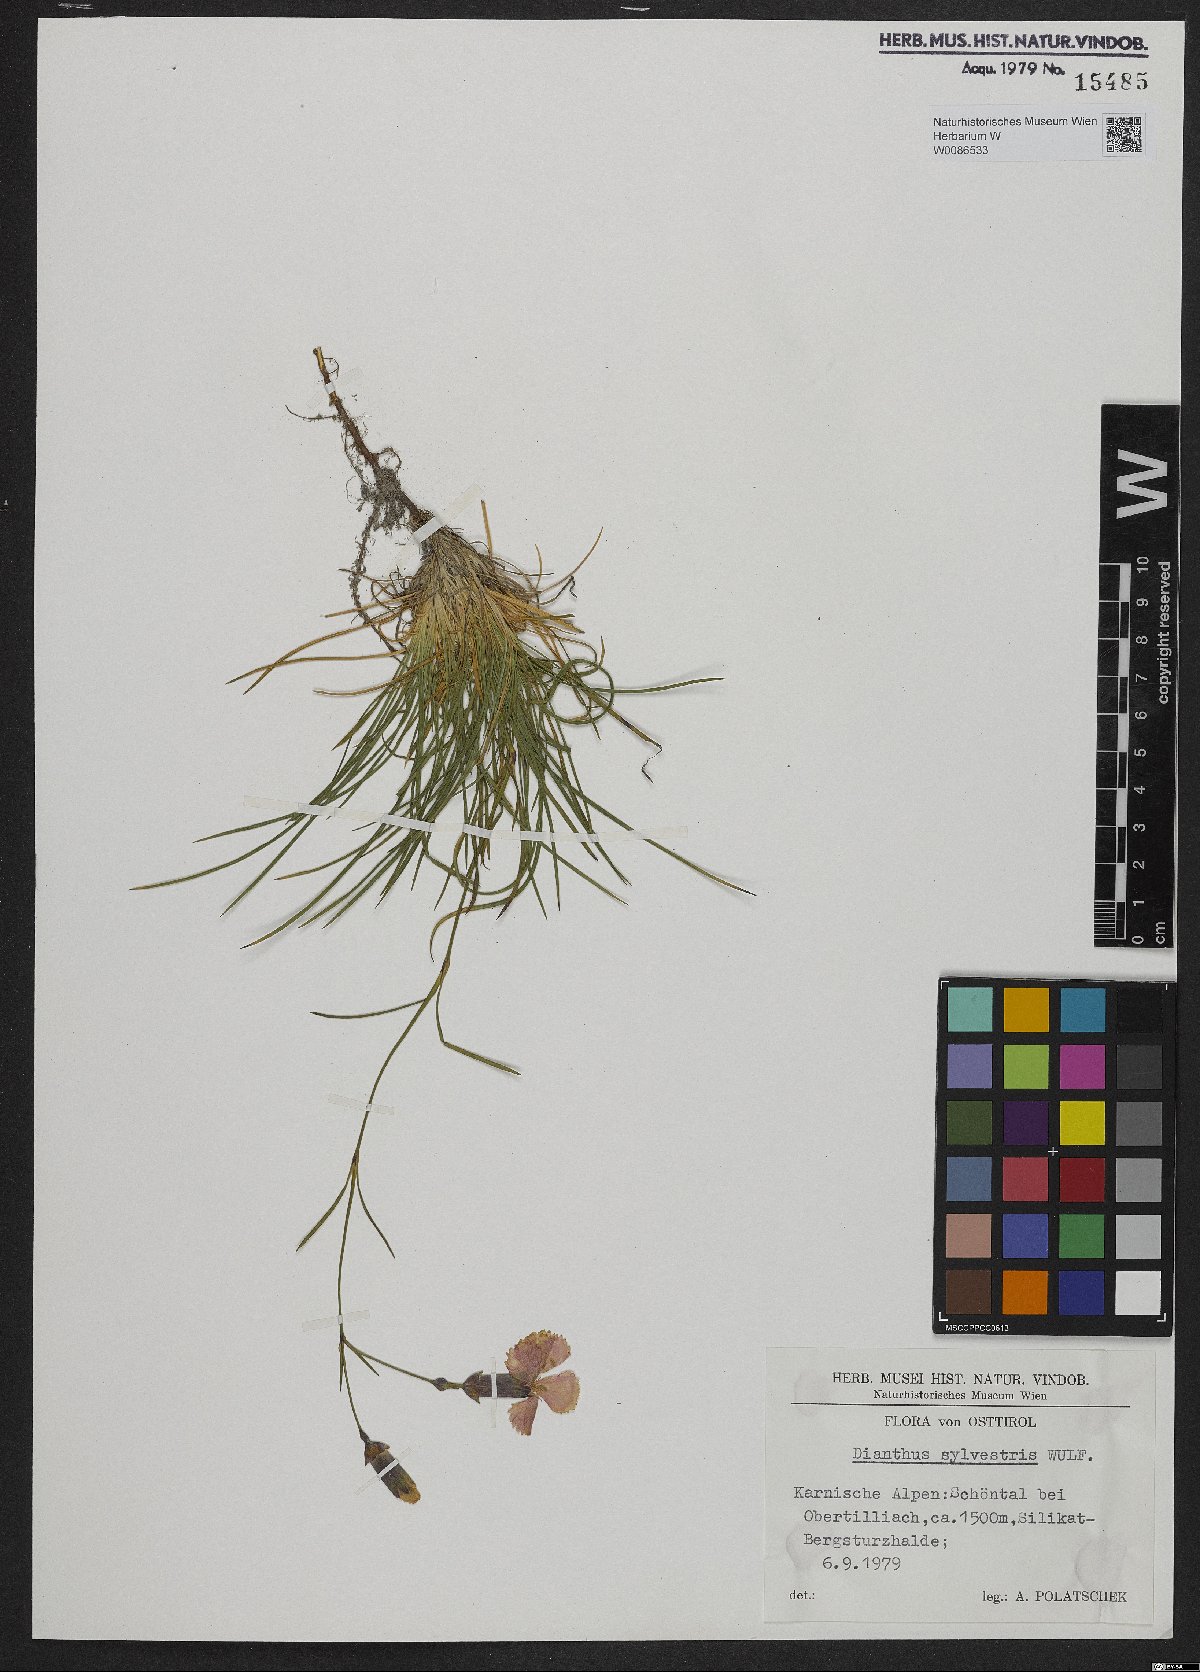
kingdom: Plantae
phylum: Tracheophyta
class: Magnoliopsida
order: Caryophyllales
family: Caryophyllaceae
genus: Dianthus
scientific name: Dianthus sylvestris
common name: Wood pink
